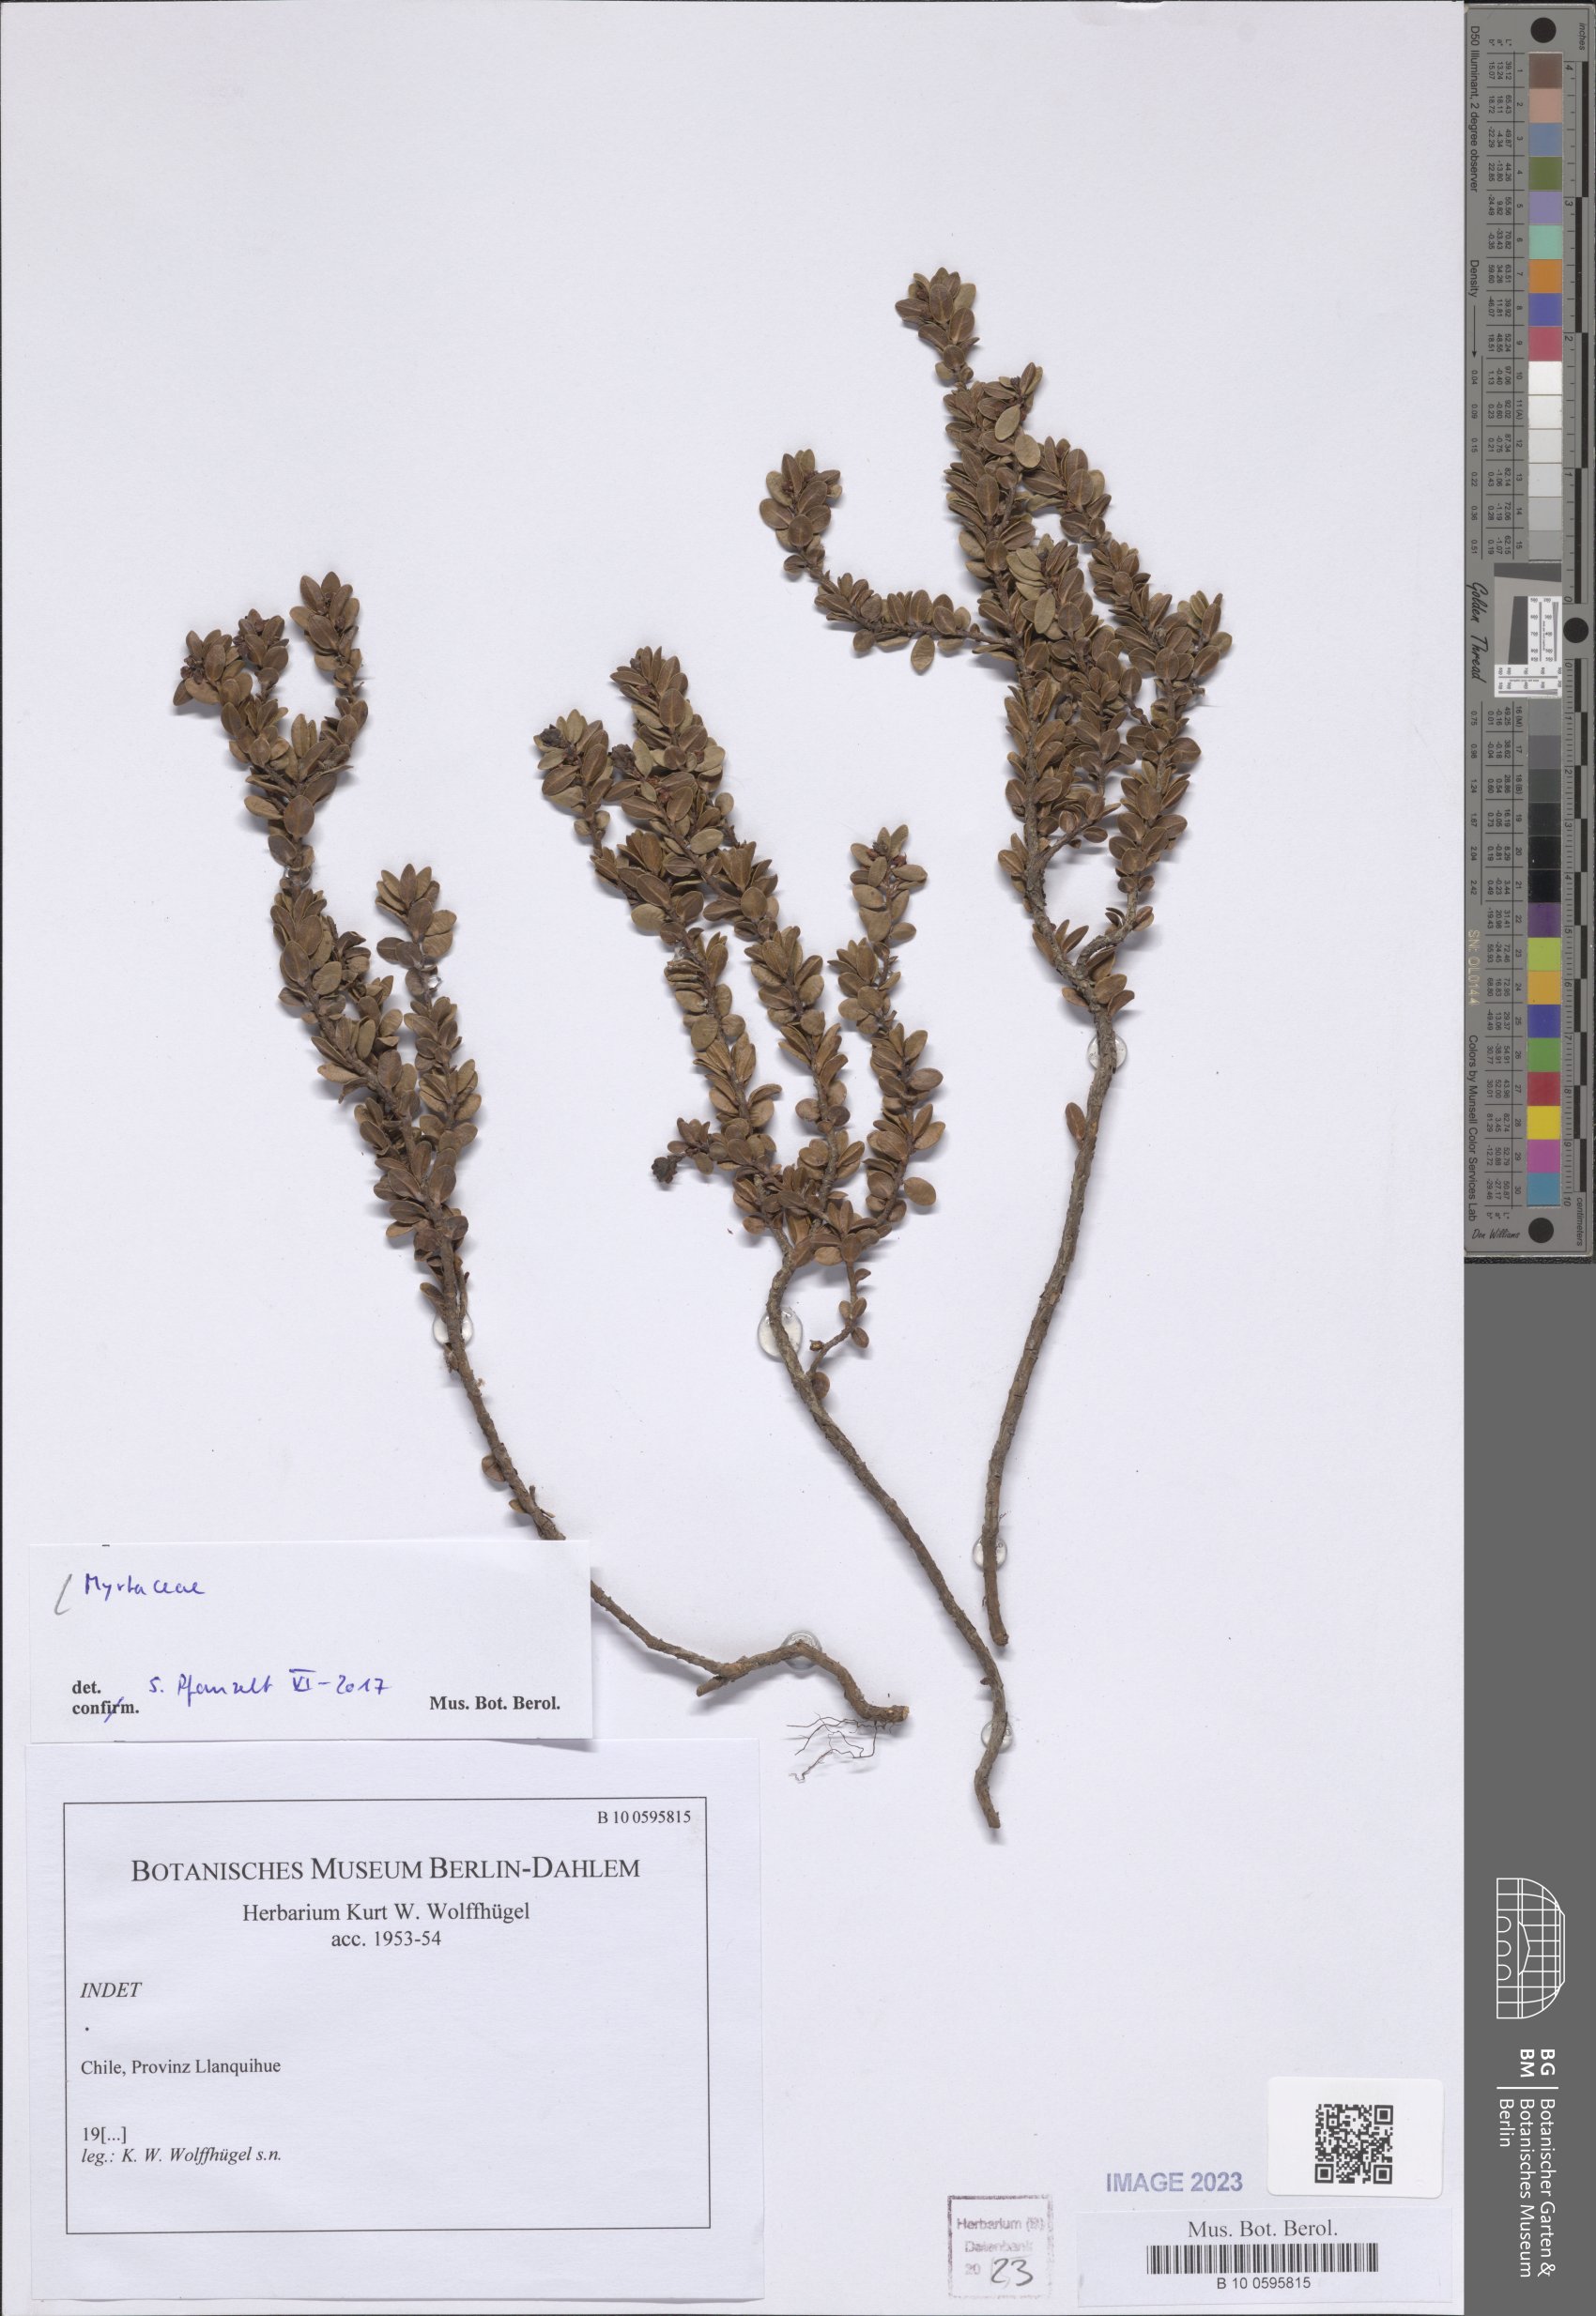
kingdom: Plantae
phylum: Tracheophyta
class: Magnoliopsida
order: Myrtales
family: Myrtaceae
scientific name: Myrtaceae
